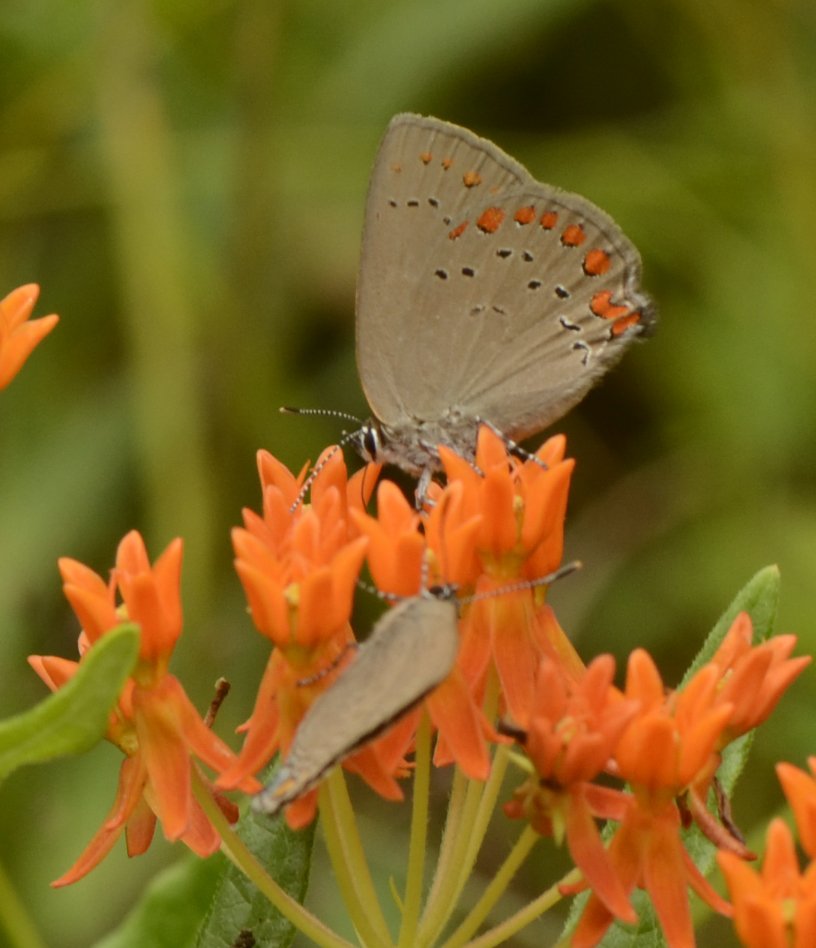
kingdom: Animalia
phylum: Arthropoda
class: Insecta
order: Lepidoptera
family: Lycaenidae
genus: Harkenclenus
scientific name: Harkenclenus titus
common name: Coral Hairstreak
